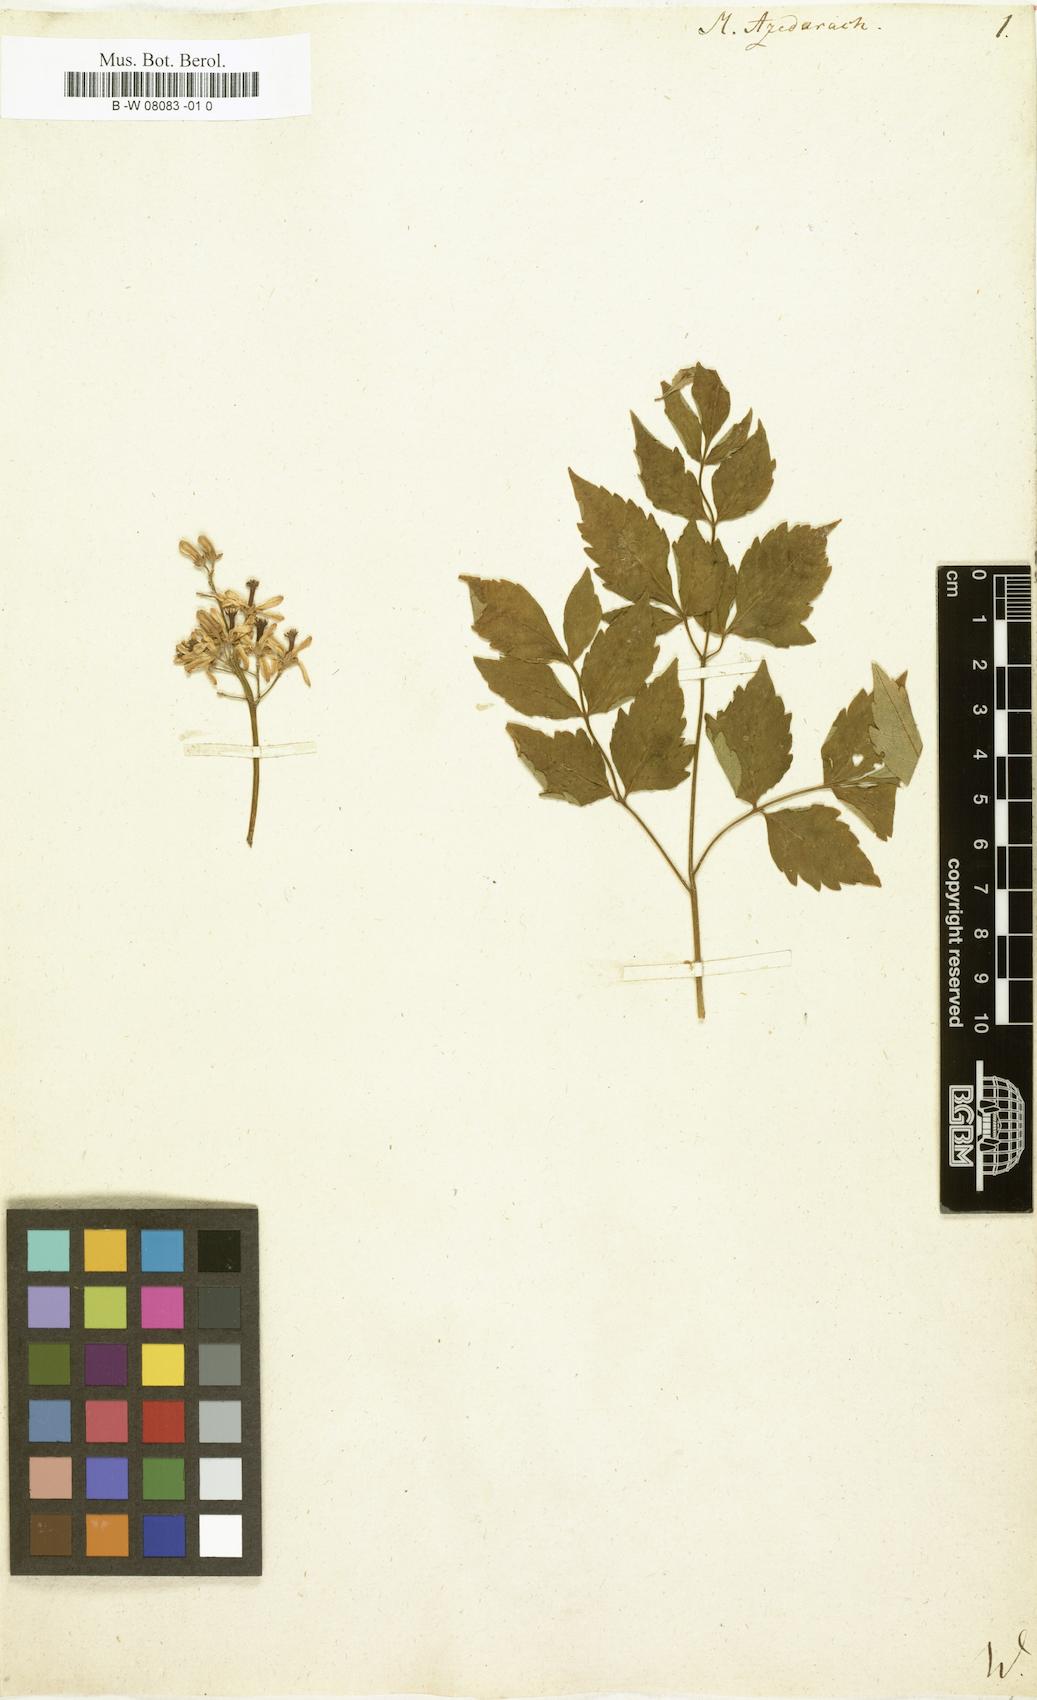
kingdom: Plantae
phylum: Tracheophyta
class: Magnoliopsida
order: Sapindales
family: Meliaceae
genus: Melia
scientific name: Melia azedarach
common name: Chinaberrytree
